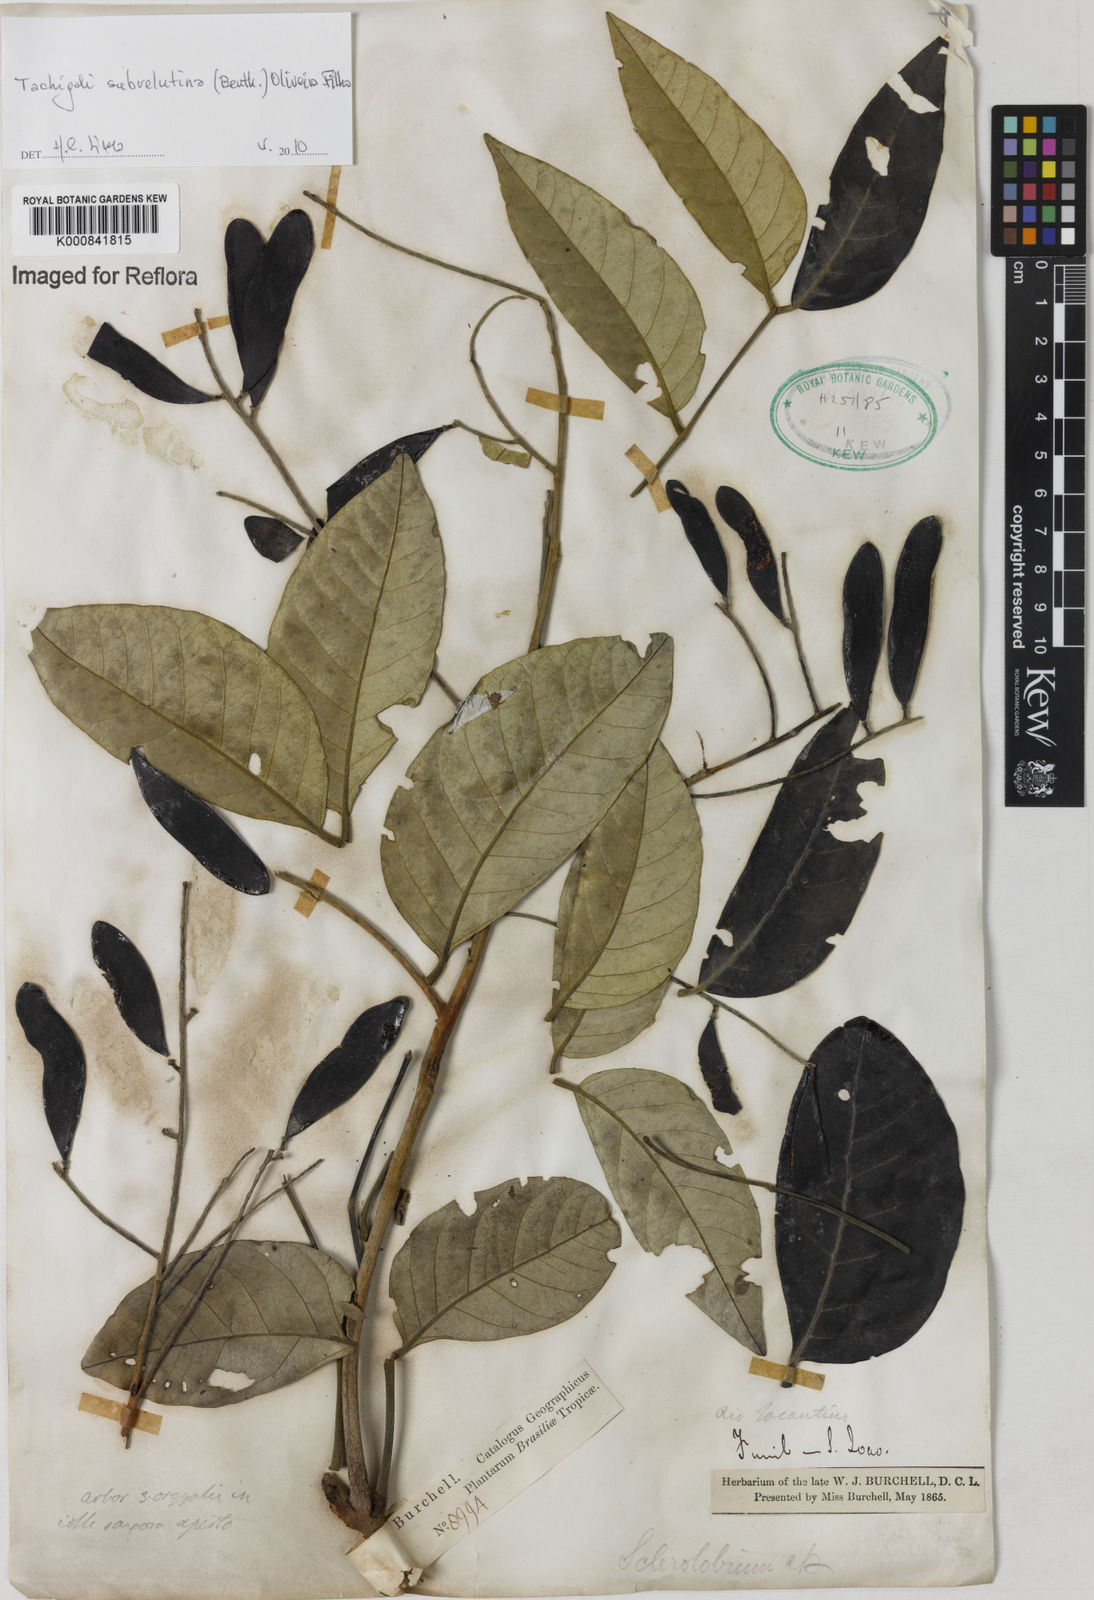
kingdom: Plantae
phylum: Tracheophyta
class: Magnoliopsida
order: Fabales
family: Fabaceae
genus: Tachigali
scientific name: Tachigali subvelutina
